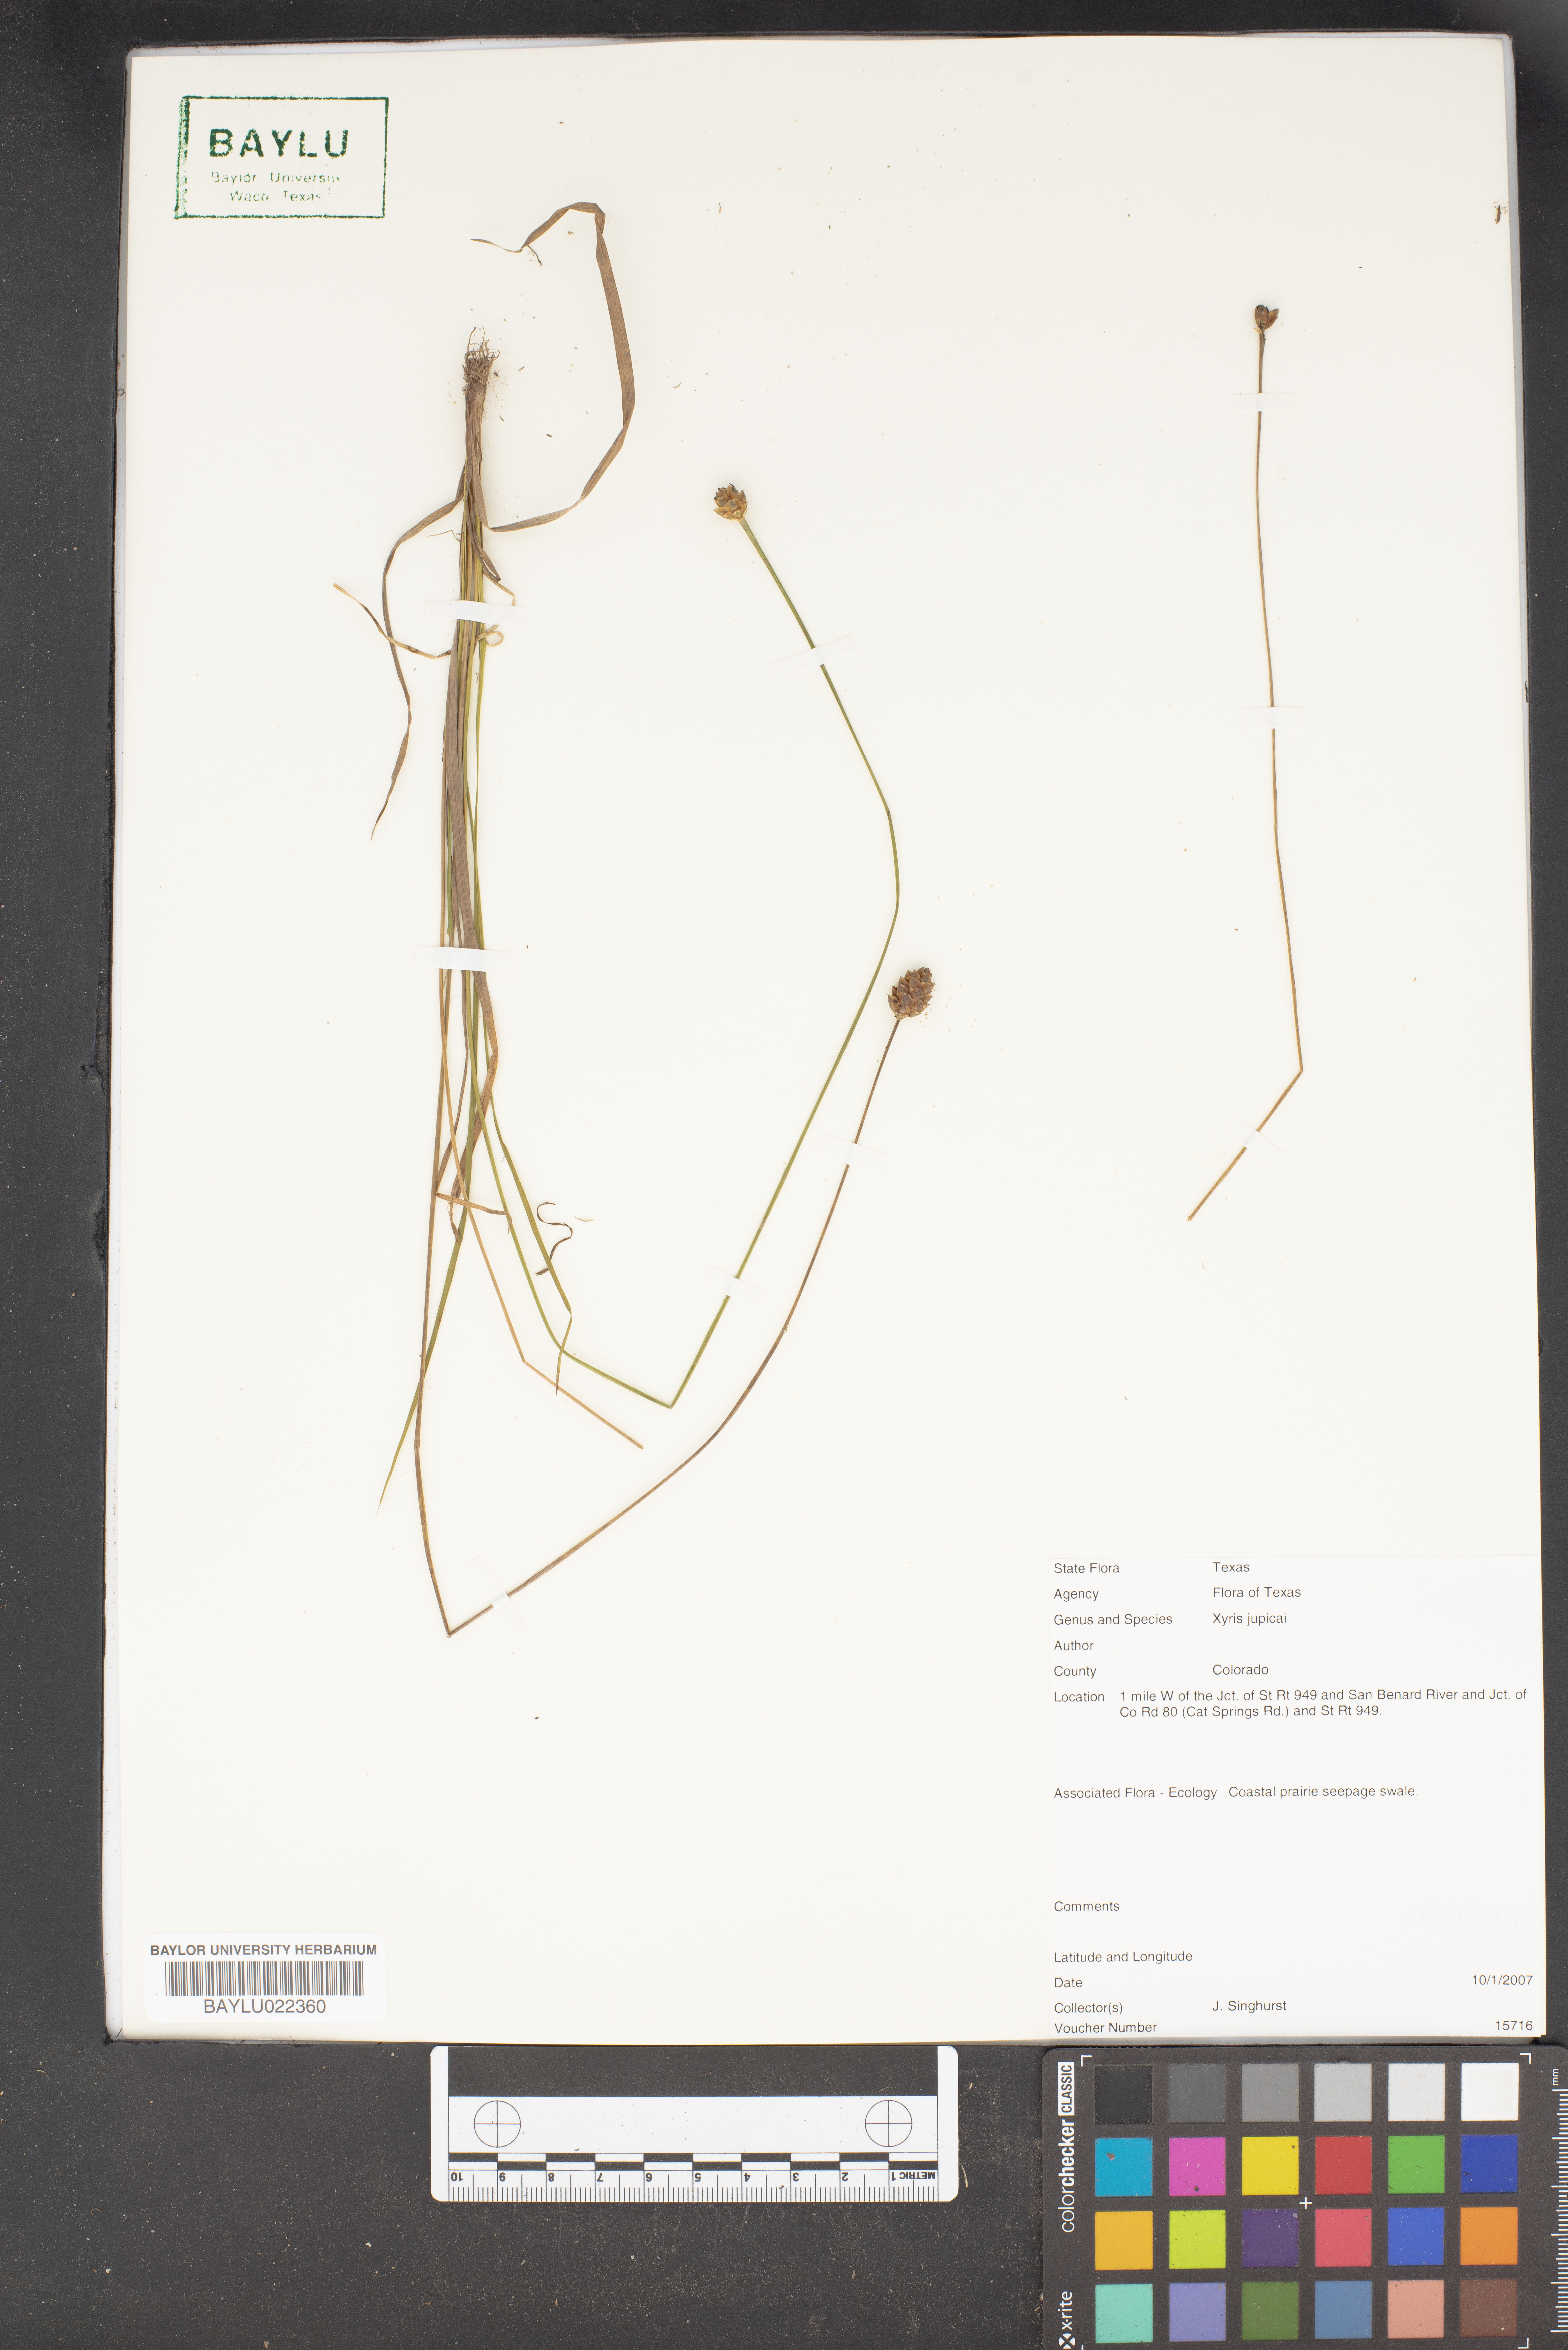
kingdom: Plantae
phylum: Tracheophyta
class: Liliopsida
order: Poales
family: Xyridaceae
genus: Xyris
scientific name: Xyris jupicai
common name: Richard's yelloweyed grass
